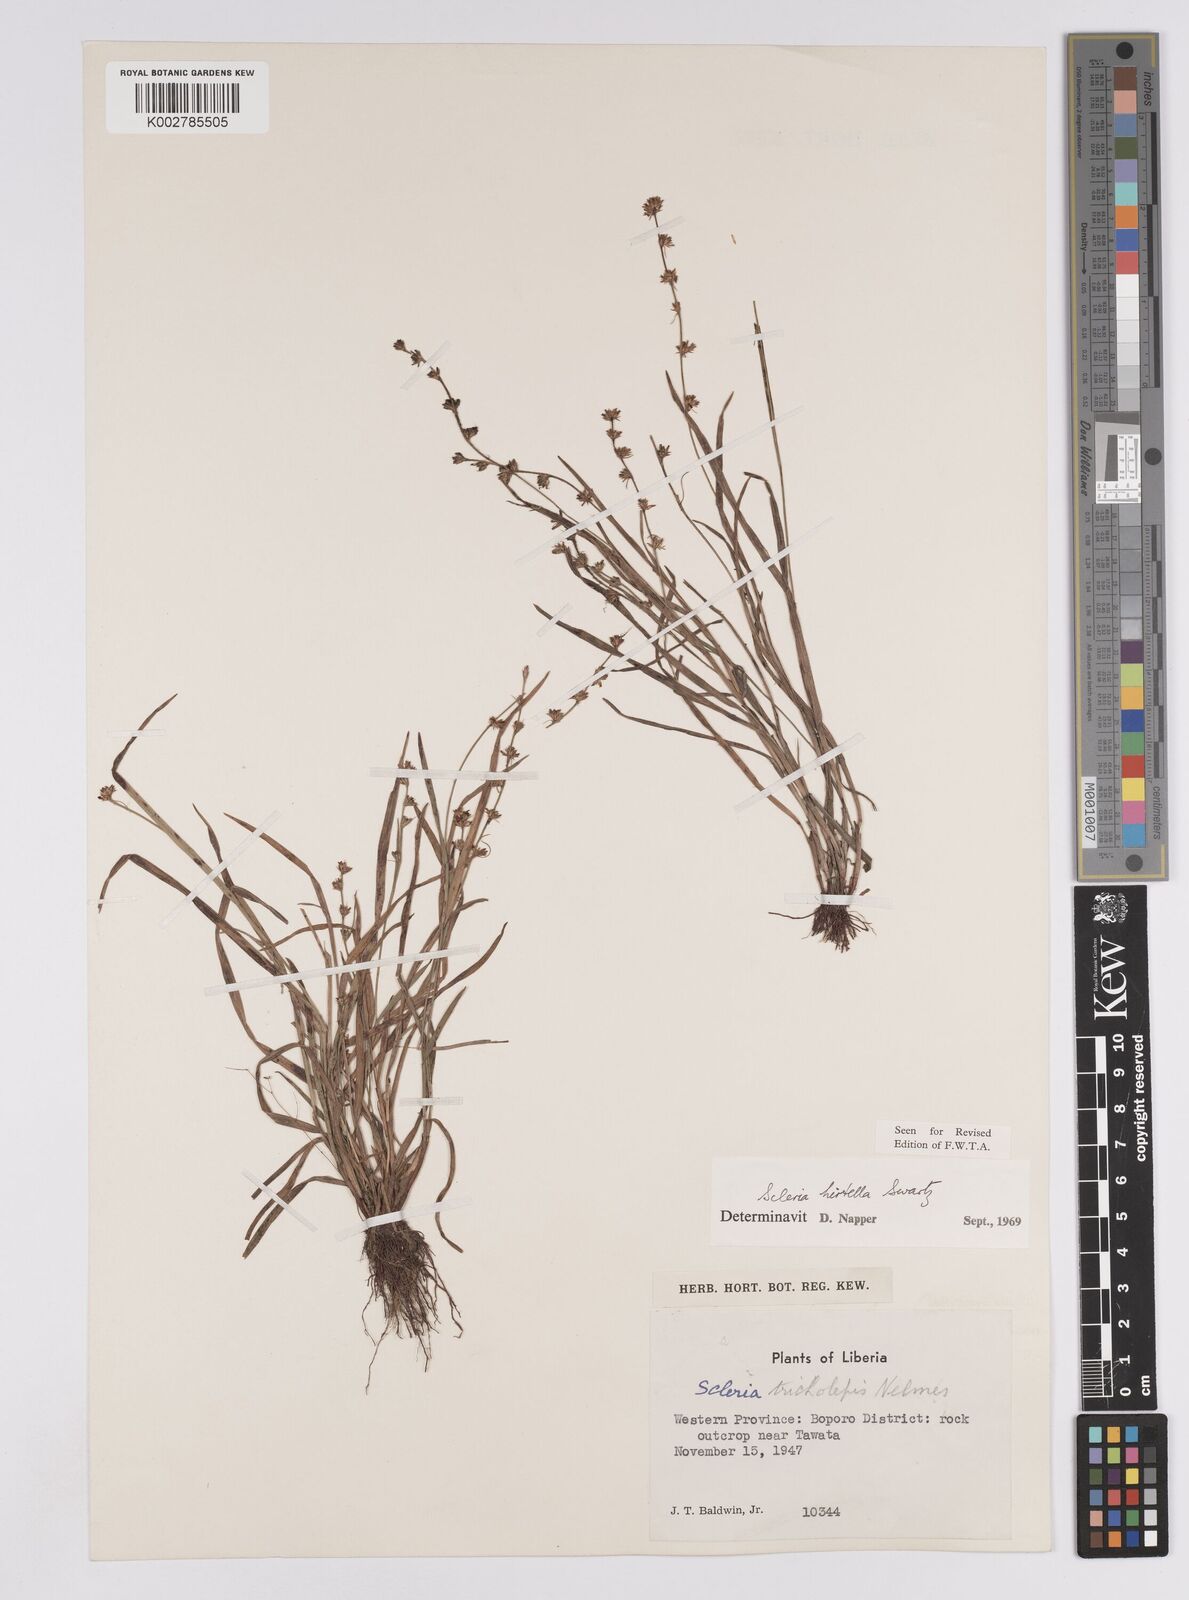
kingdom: Plantae
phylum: Tracheophyta
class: Liliopsida
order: Poales
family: Cyperaceae
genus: Scleria
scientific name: Scleria tricholepis
